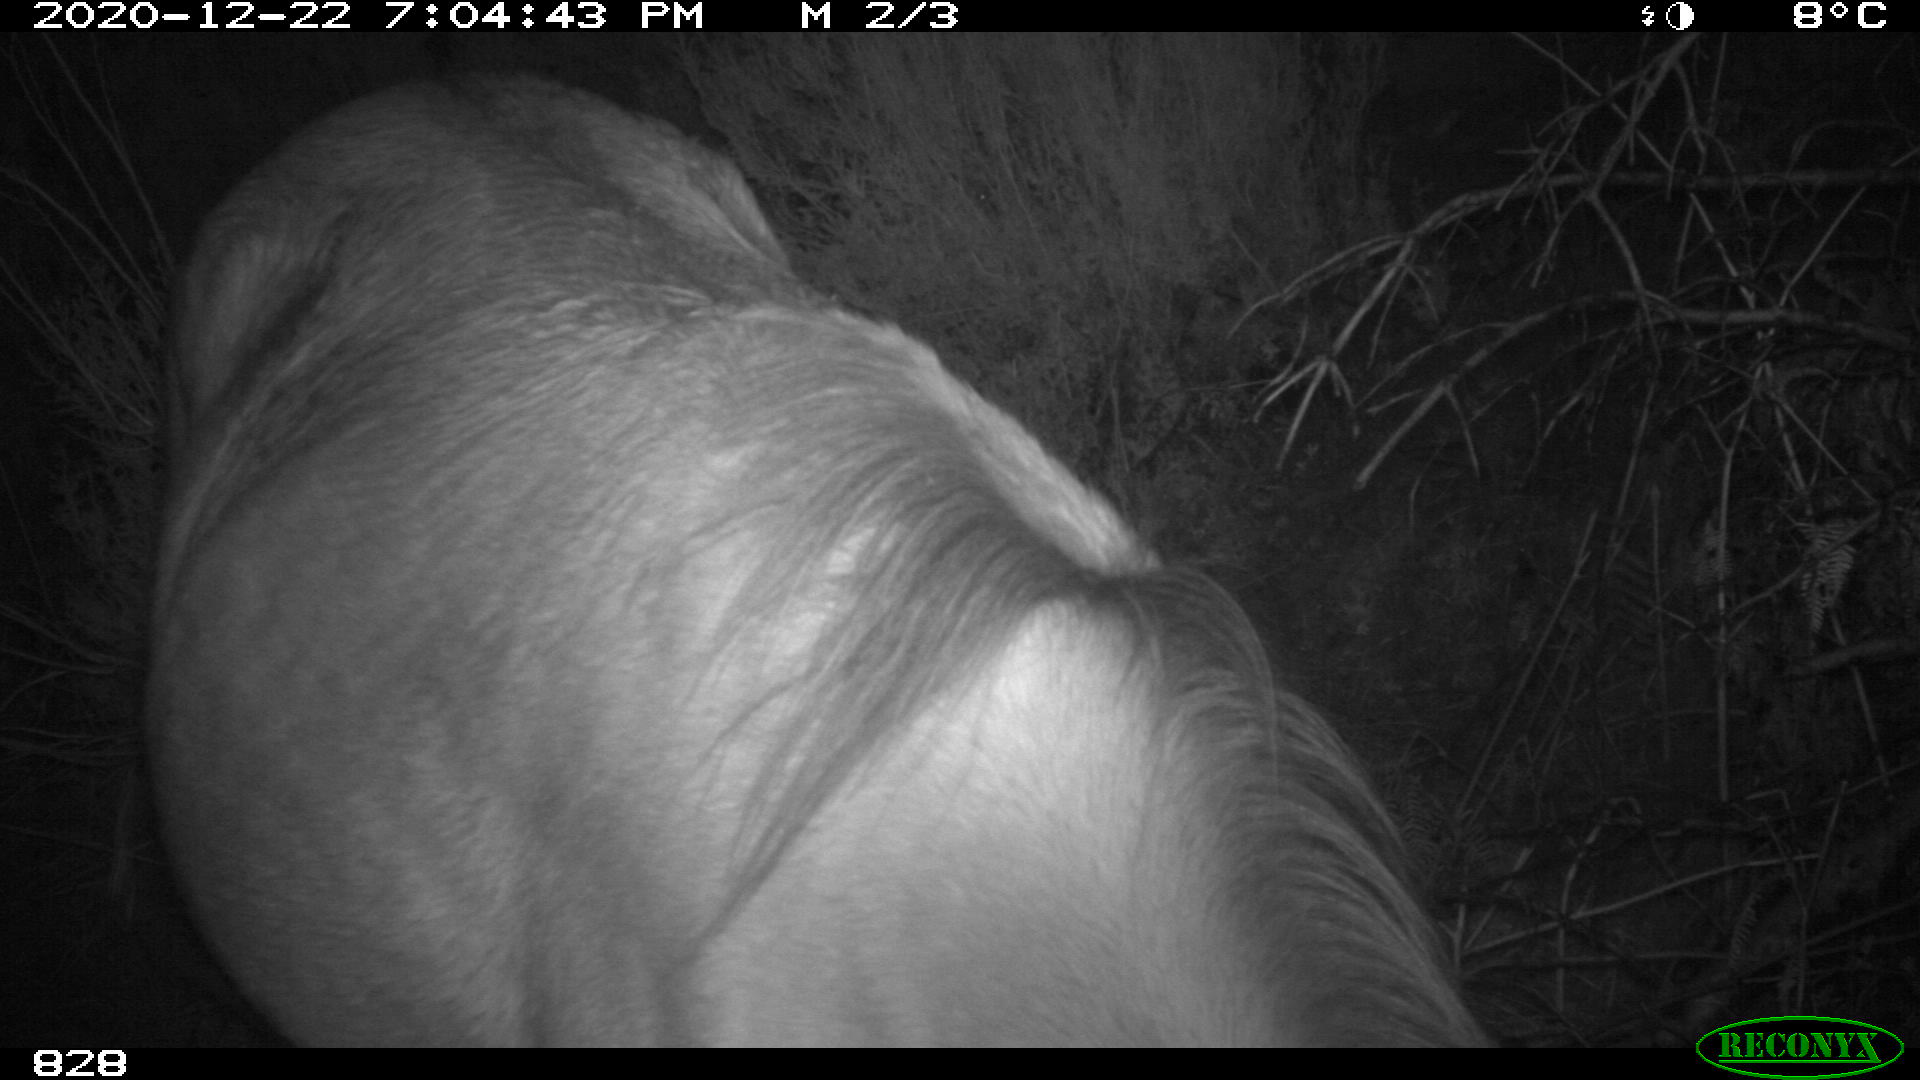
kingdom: Animalia
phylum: Chordata
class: Mammalia
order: Perissodactyla
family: Equidae
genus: Equus
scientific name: Equus caballus
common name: Horse
